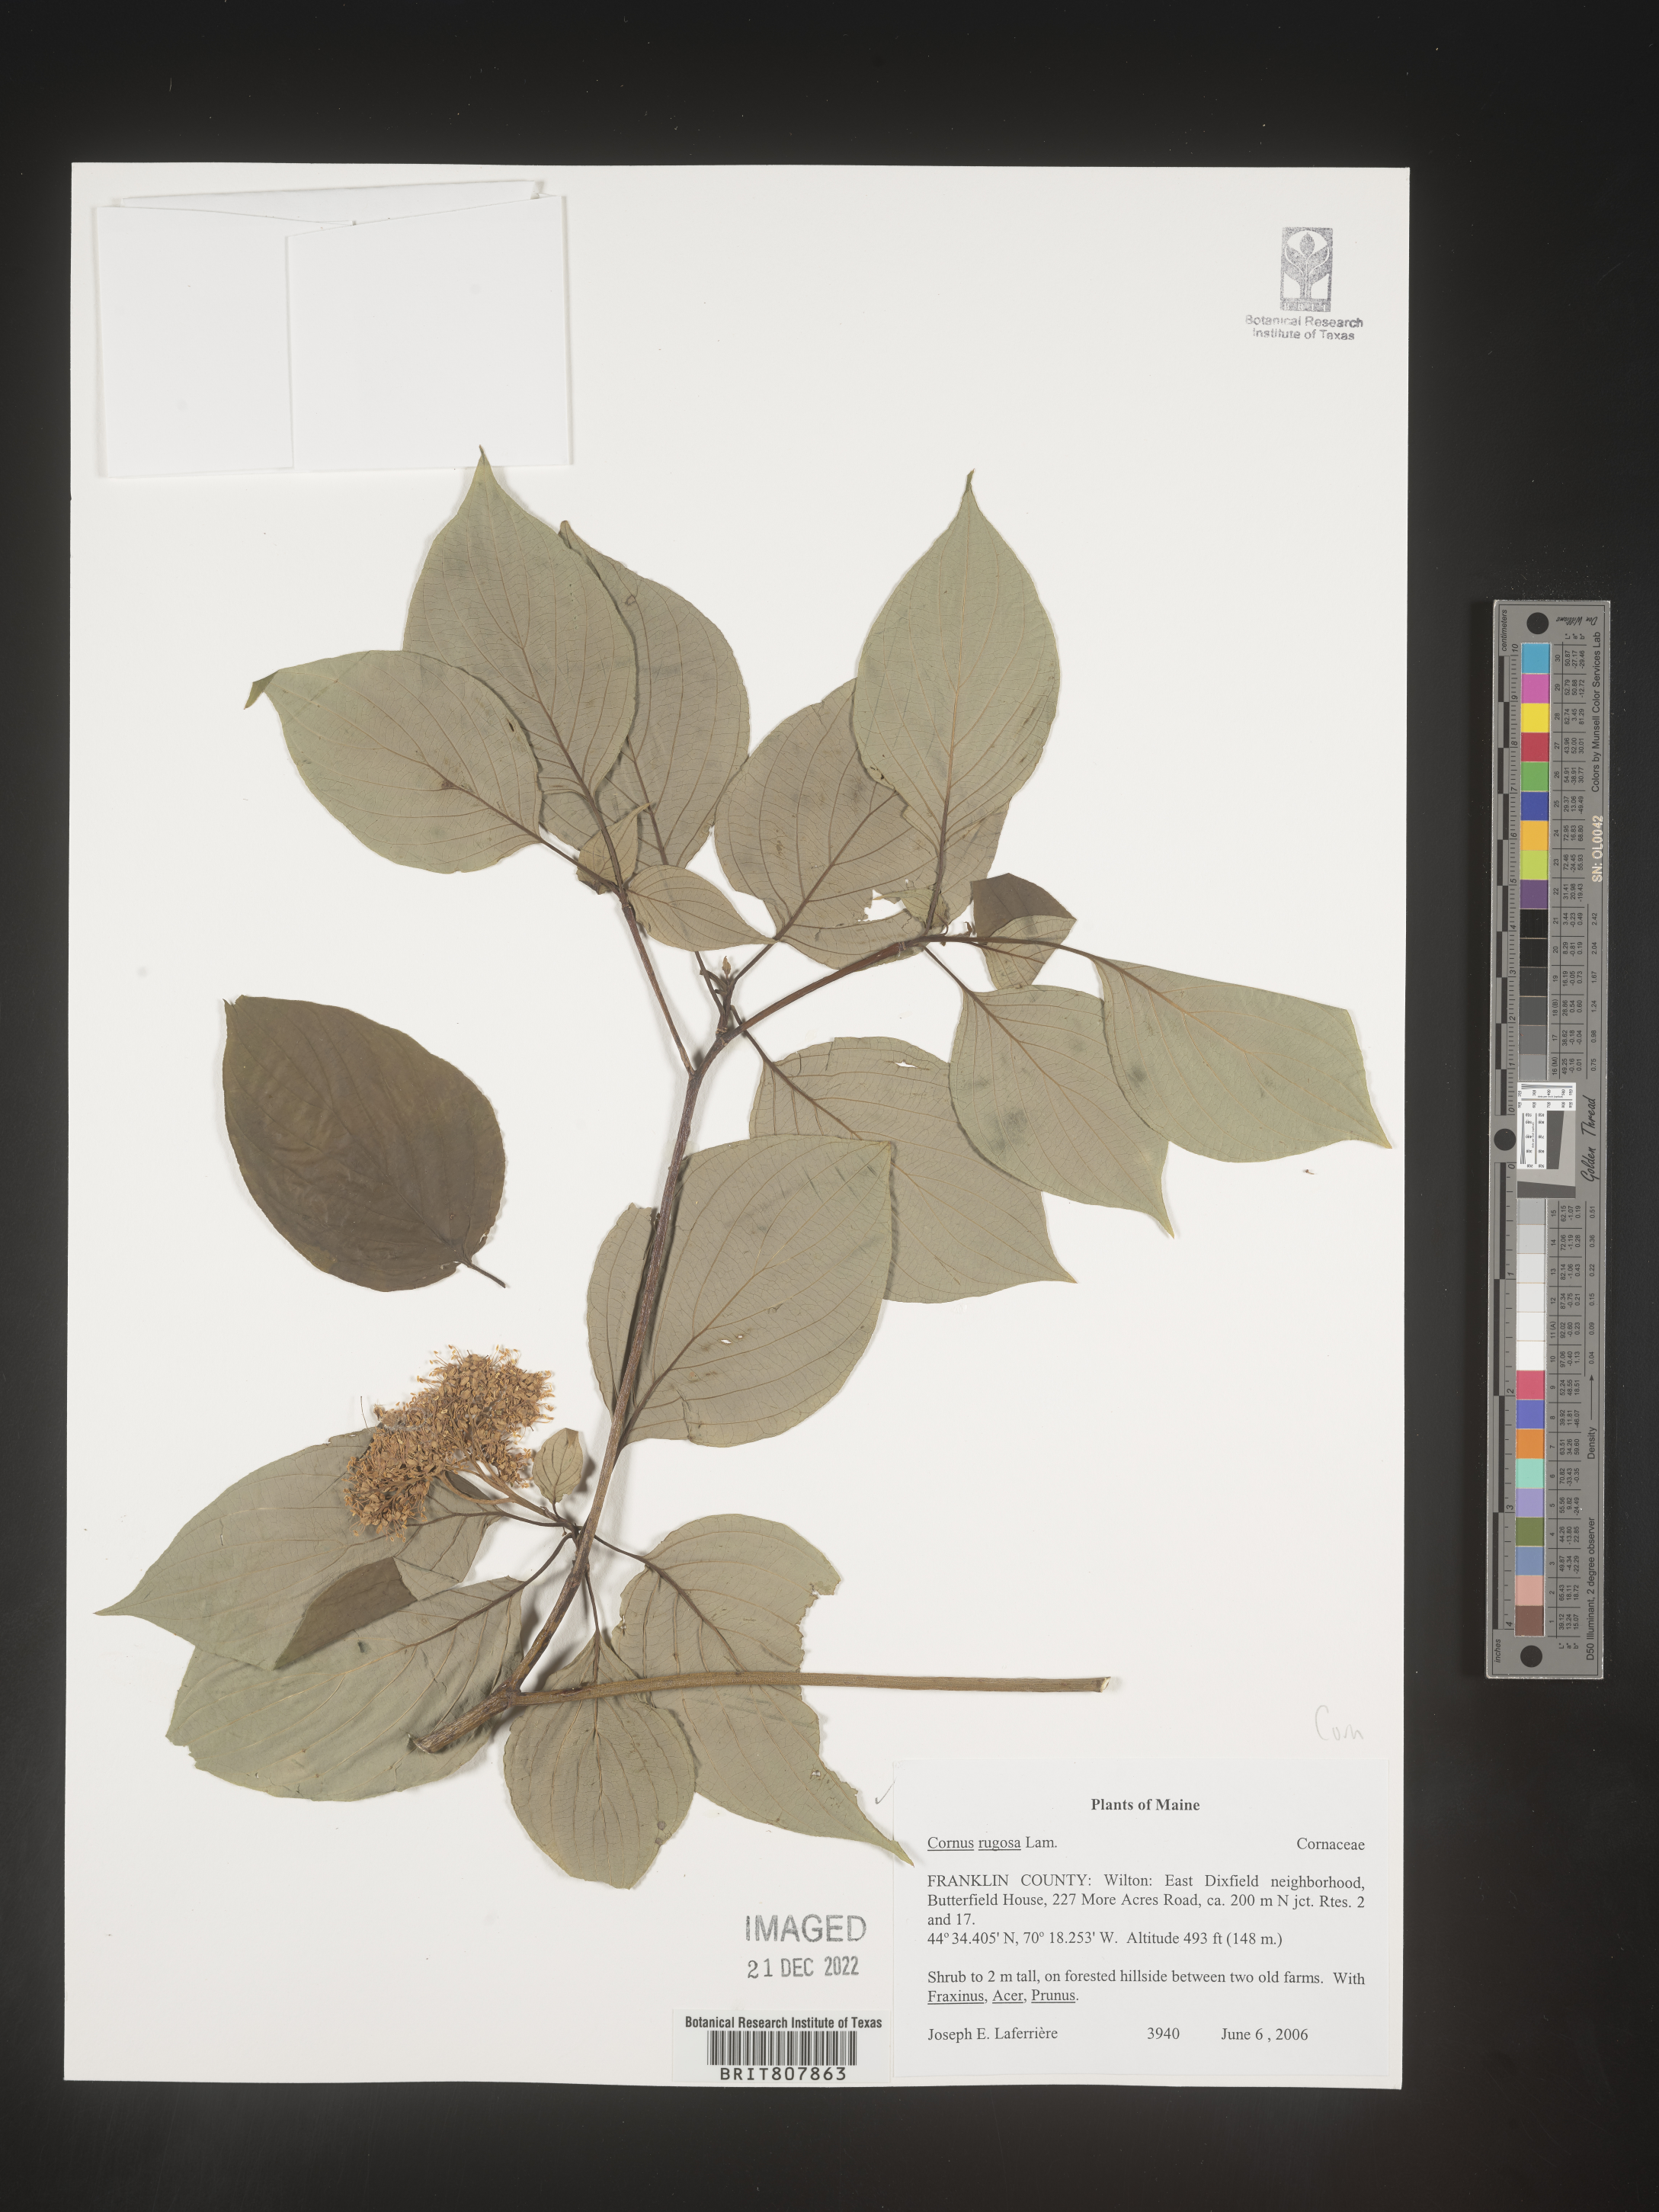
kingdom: Plantae
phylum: Tracheophyta
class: Magnoliopsida
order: Cornales
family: Cornaceae
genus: Cornus
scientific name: Cornus rugosa
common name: Round-leaf dogwood
